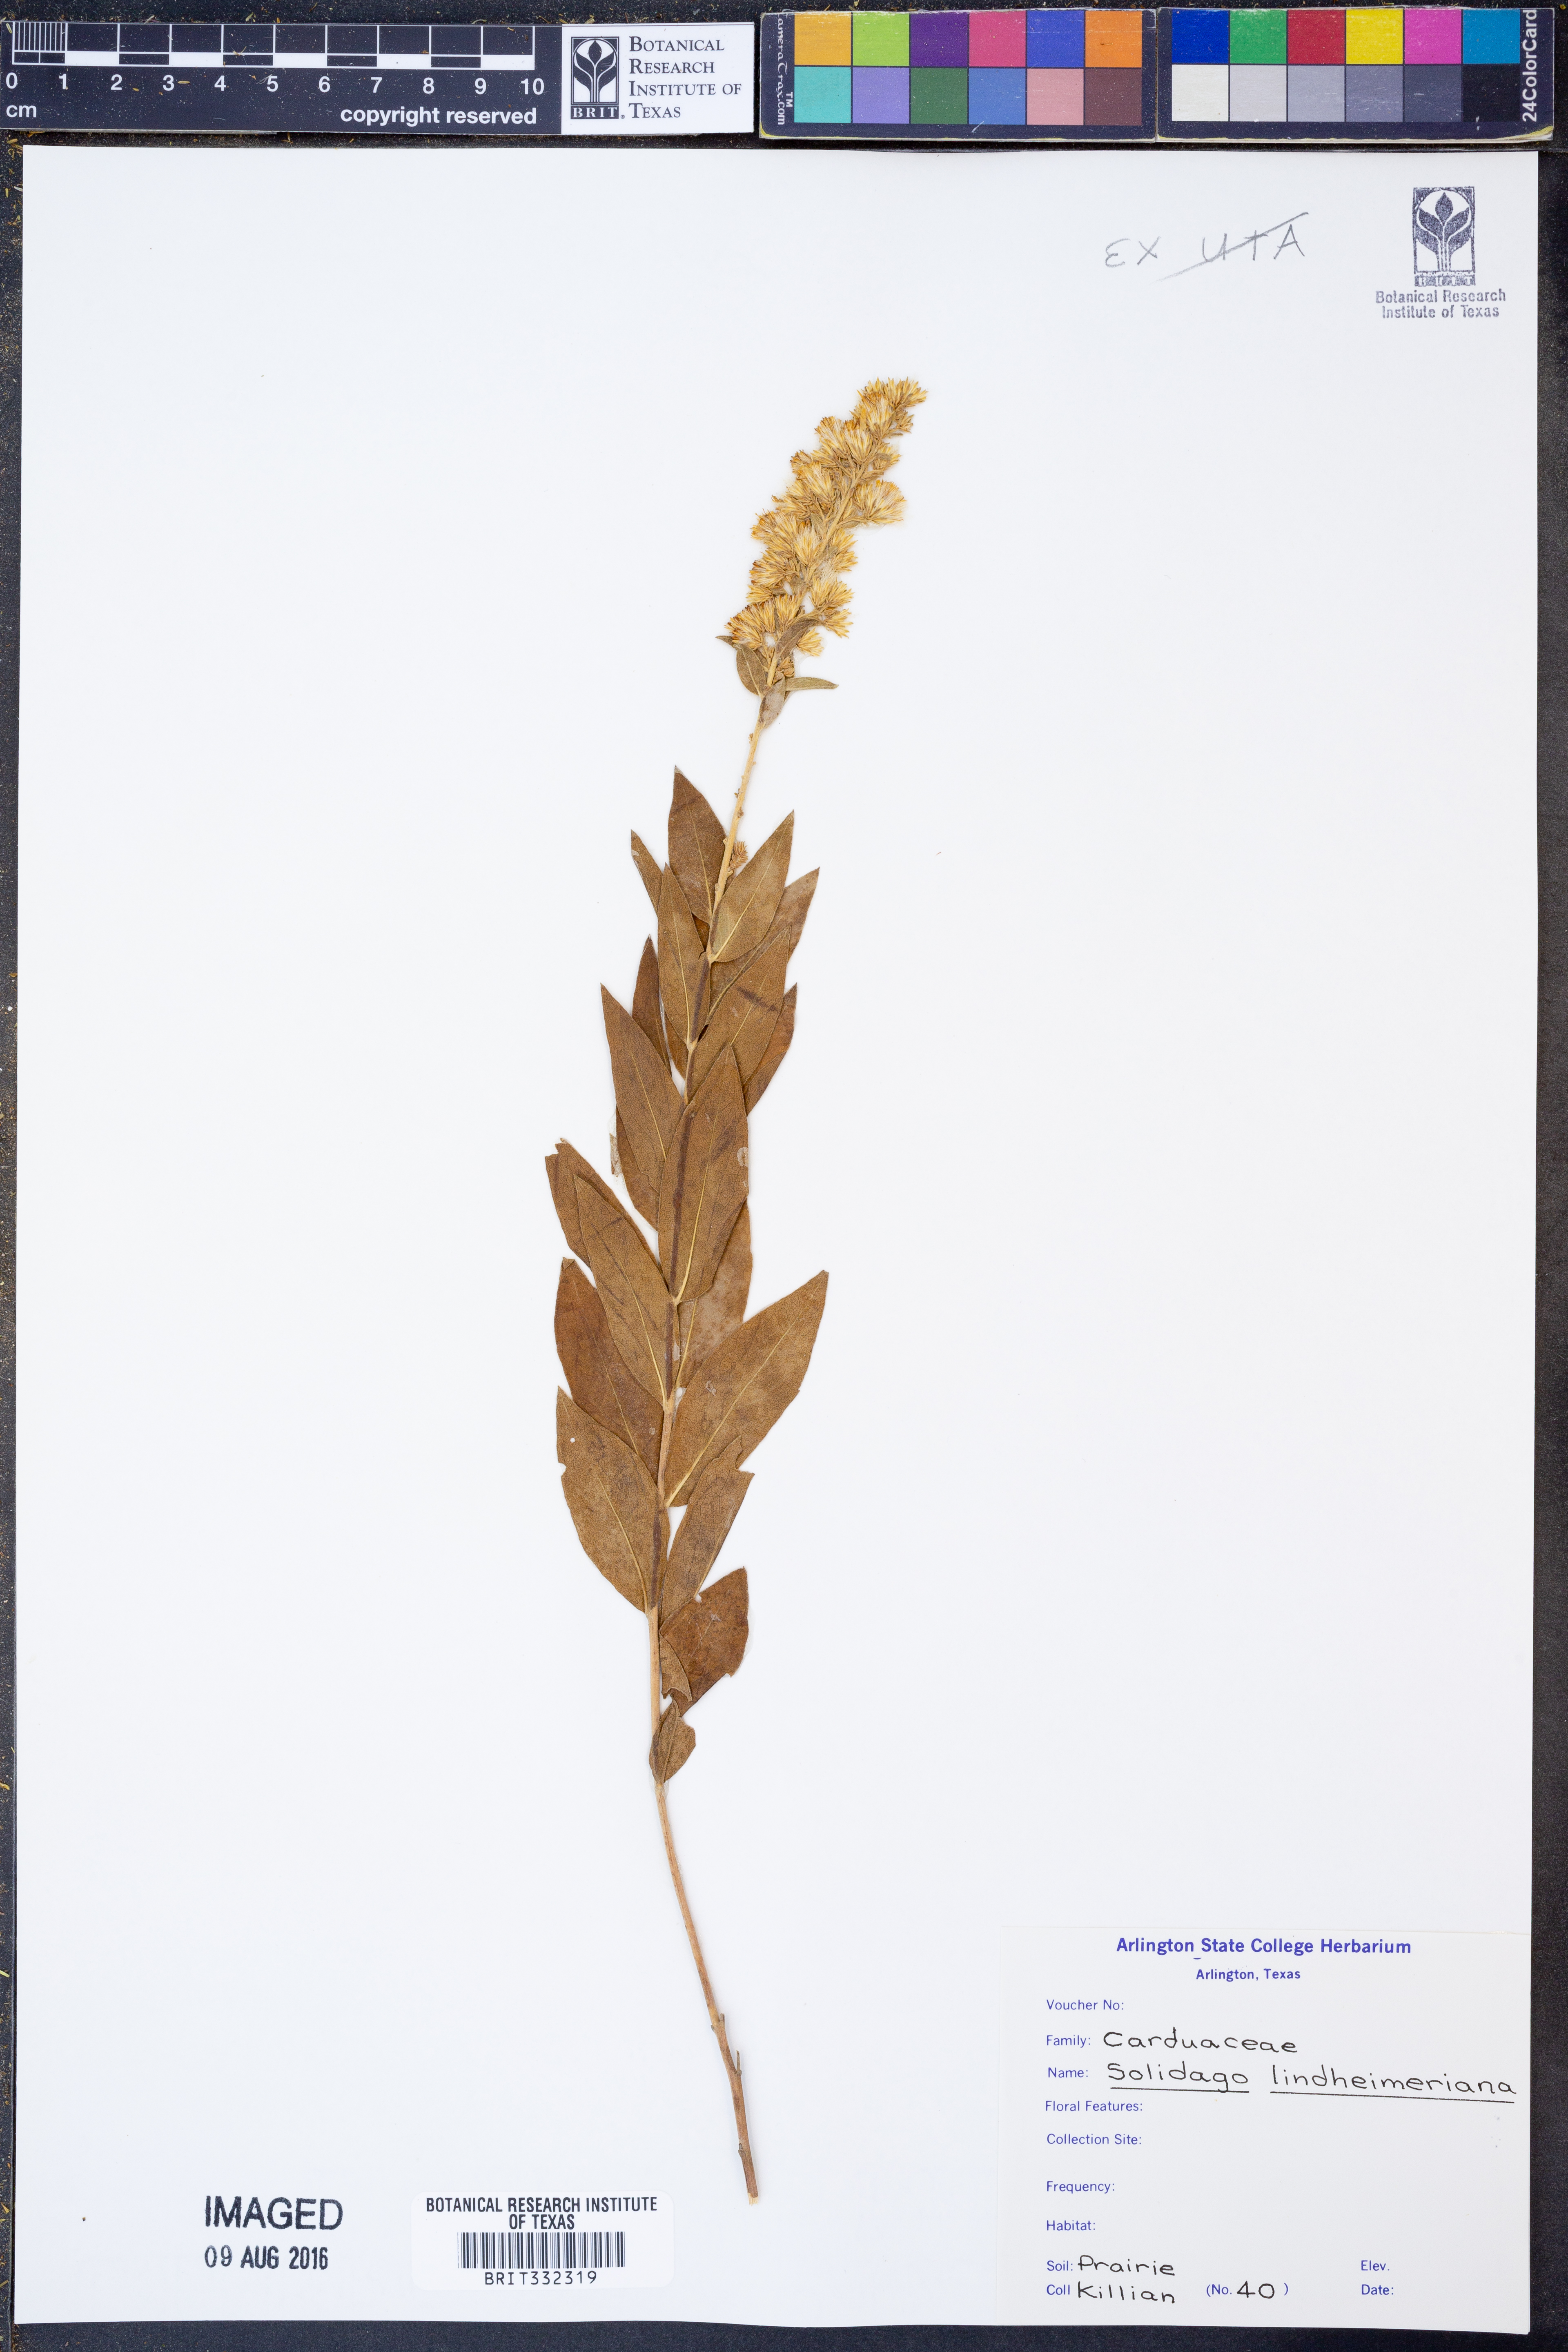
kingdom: Plantae
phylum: Tracheophyta
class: Magnoliopsida
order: Asterales
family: Asteraceae
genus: Solidago
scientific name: Solidago petiolaris
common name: Downy ragged goldenrod
